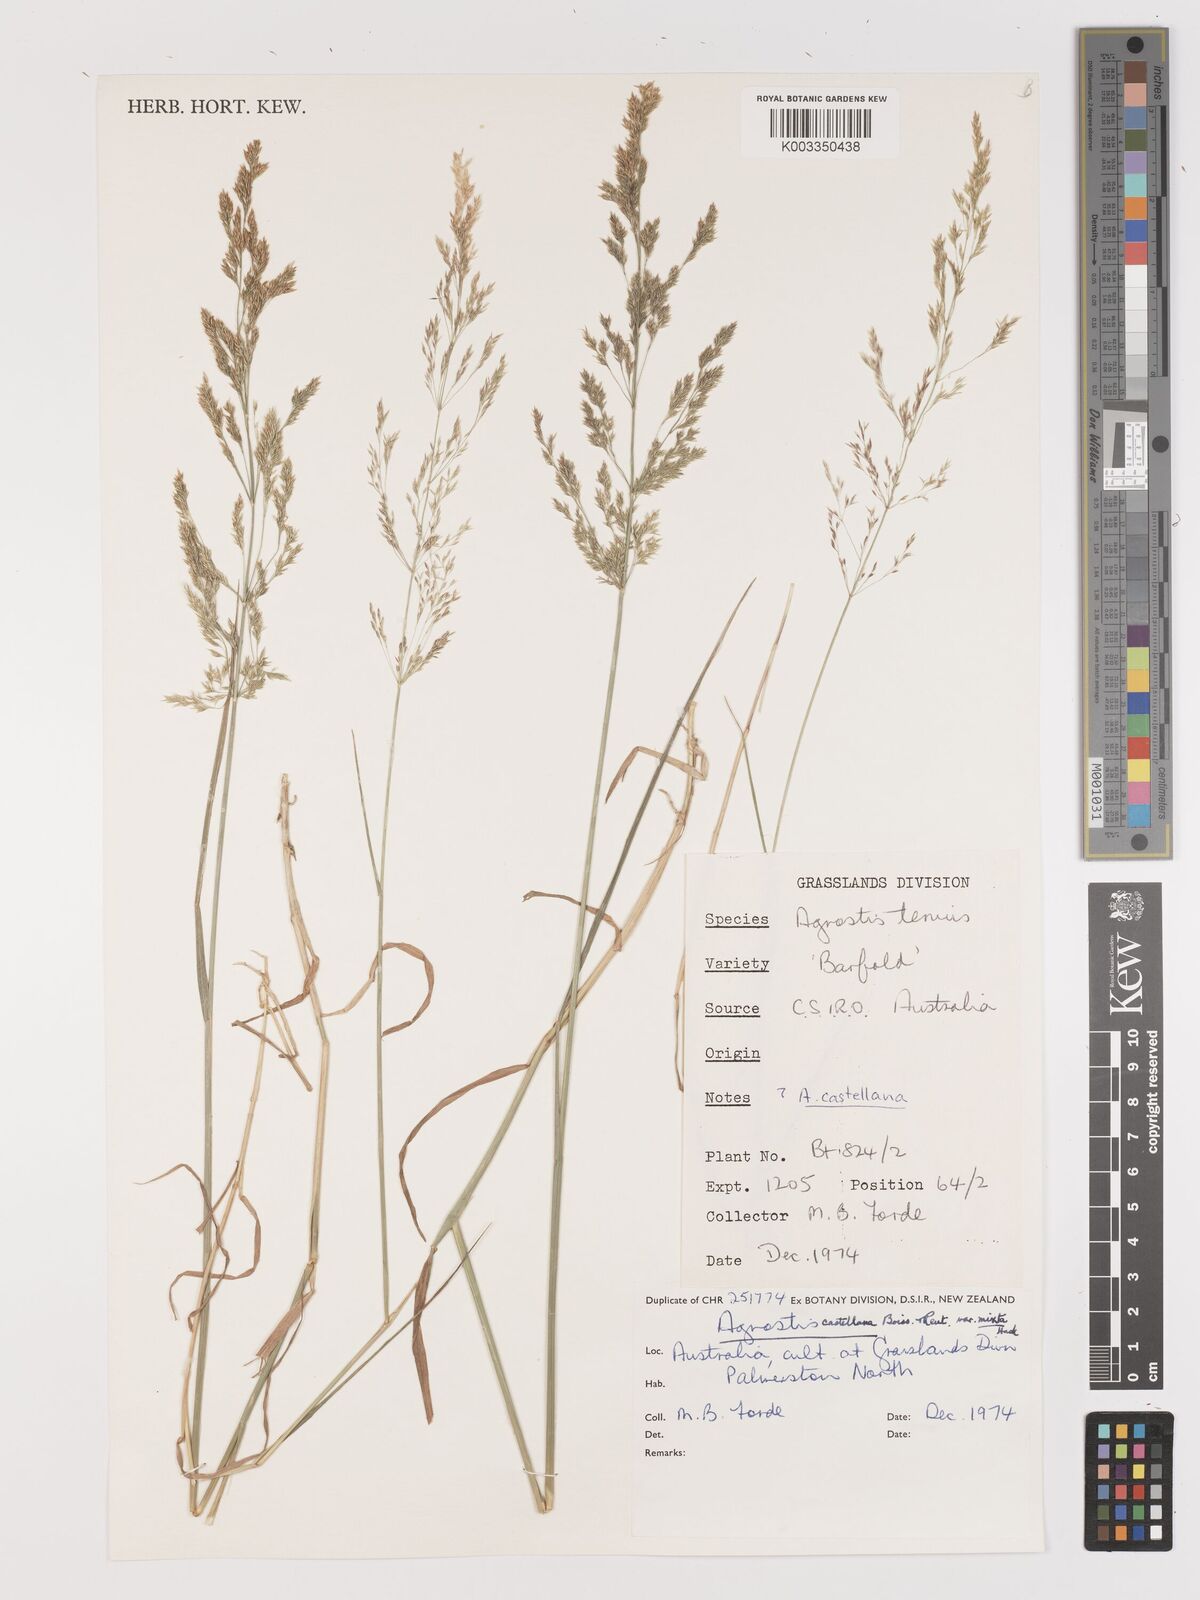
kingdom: Plantae
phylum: Tracheophyta
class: Liliopsida
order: Poales
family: Poaceae
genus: Agrostis
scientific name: Agrostis castellana
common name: Highland bent
